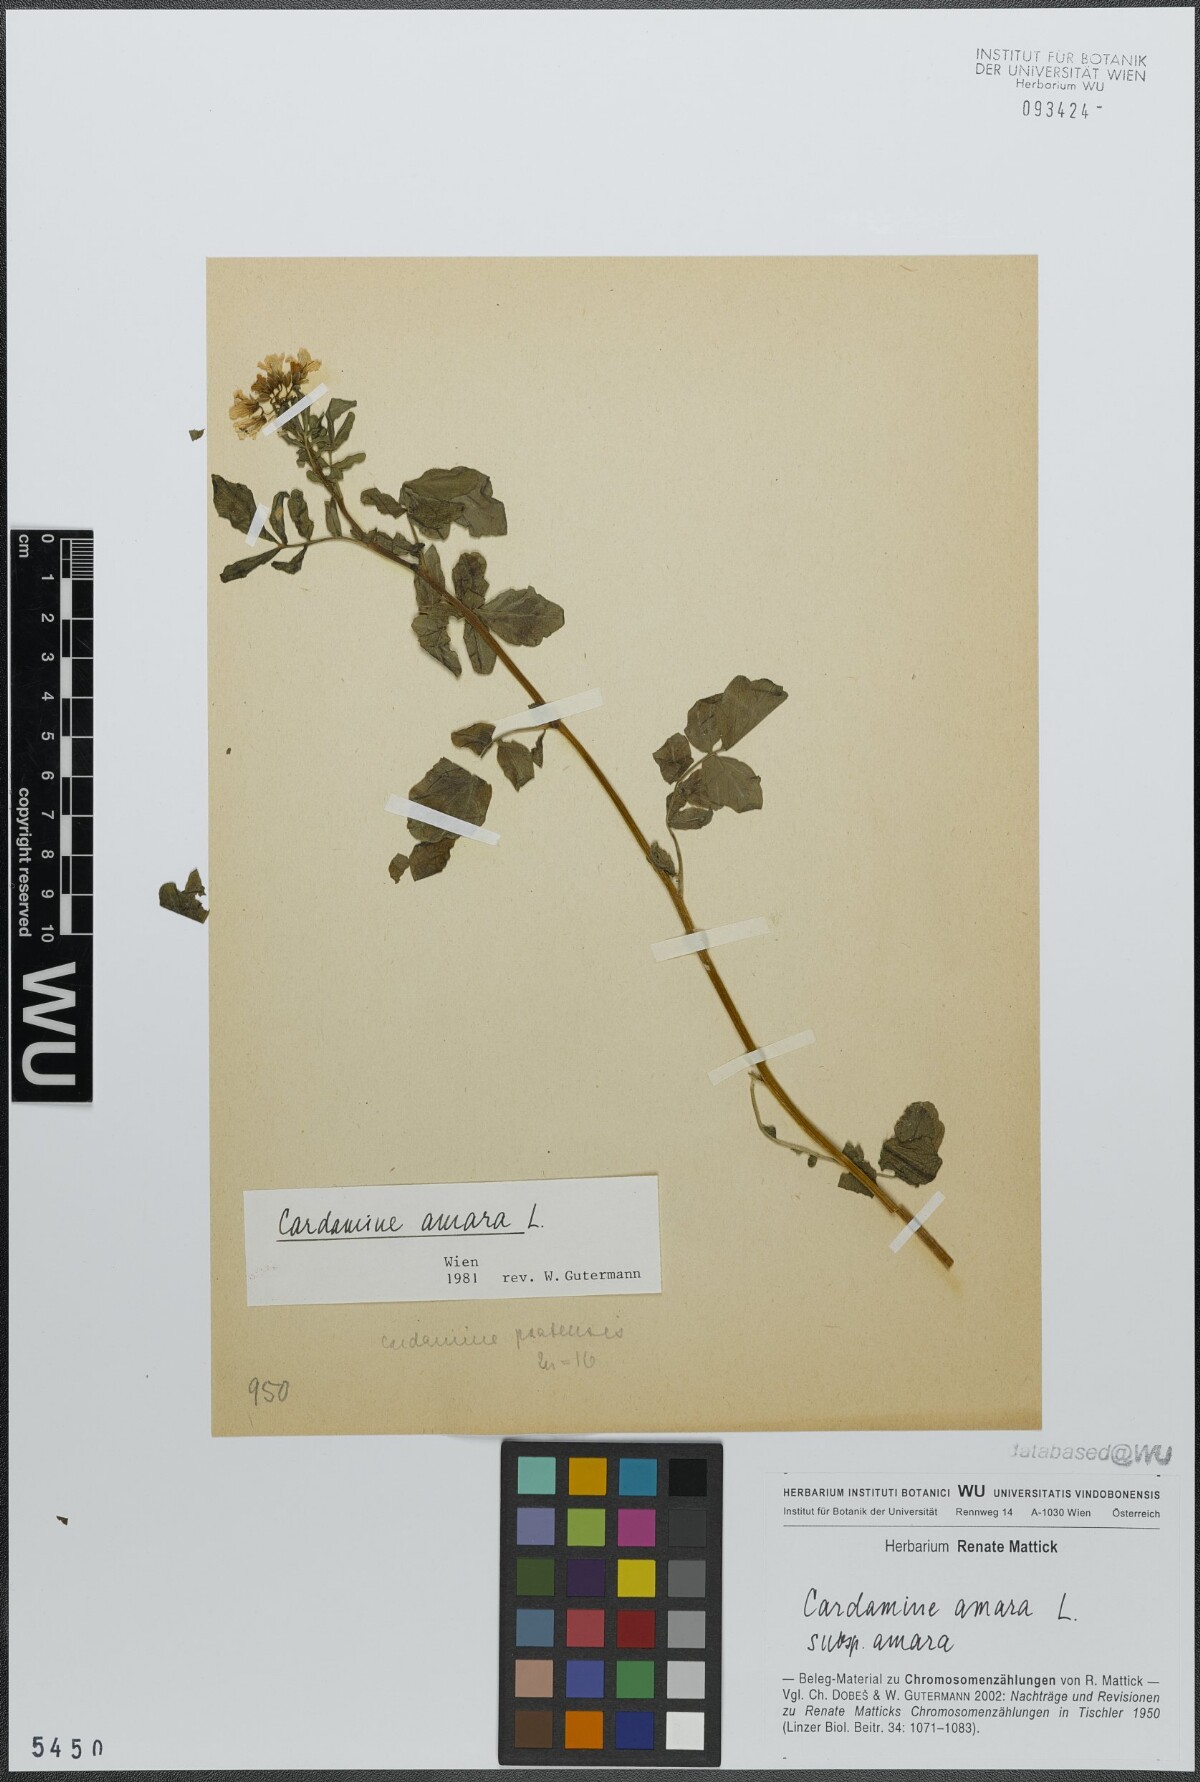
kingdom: Plantae
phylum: Tracheophyta
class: Magnoliopsida
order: Brassicales
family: Brassicaceae
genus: Cardamine
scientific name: Cardamine amara
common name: Large bitter-cress
